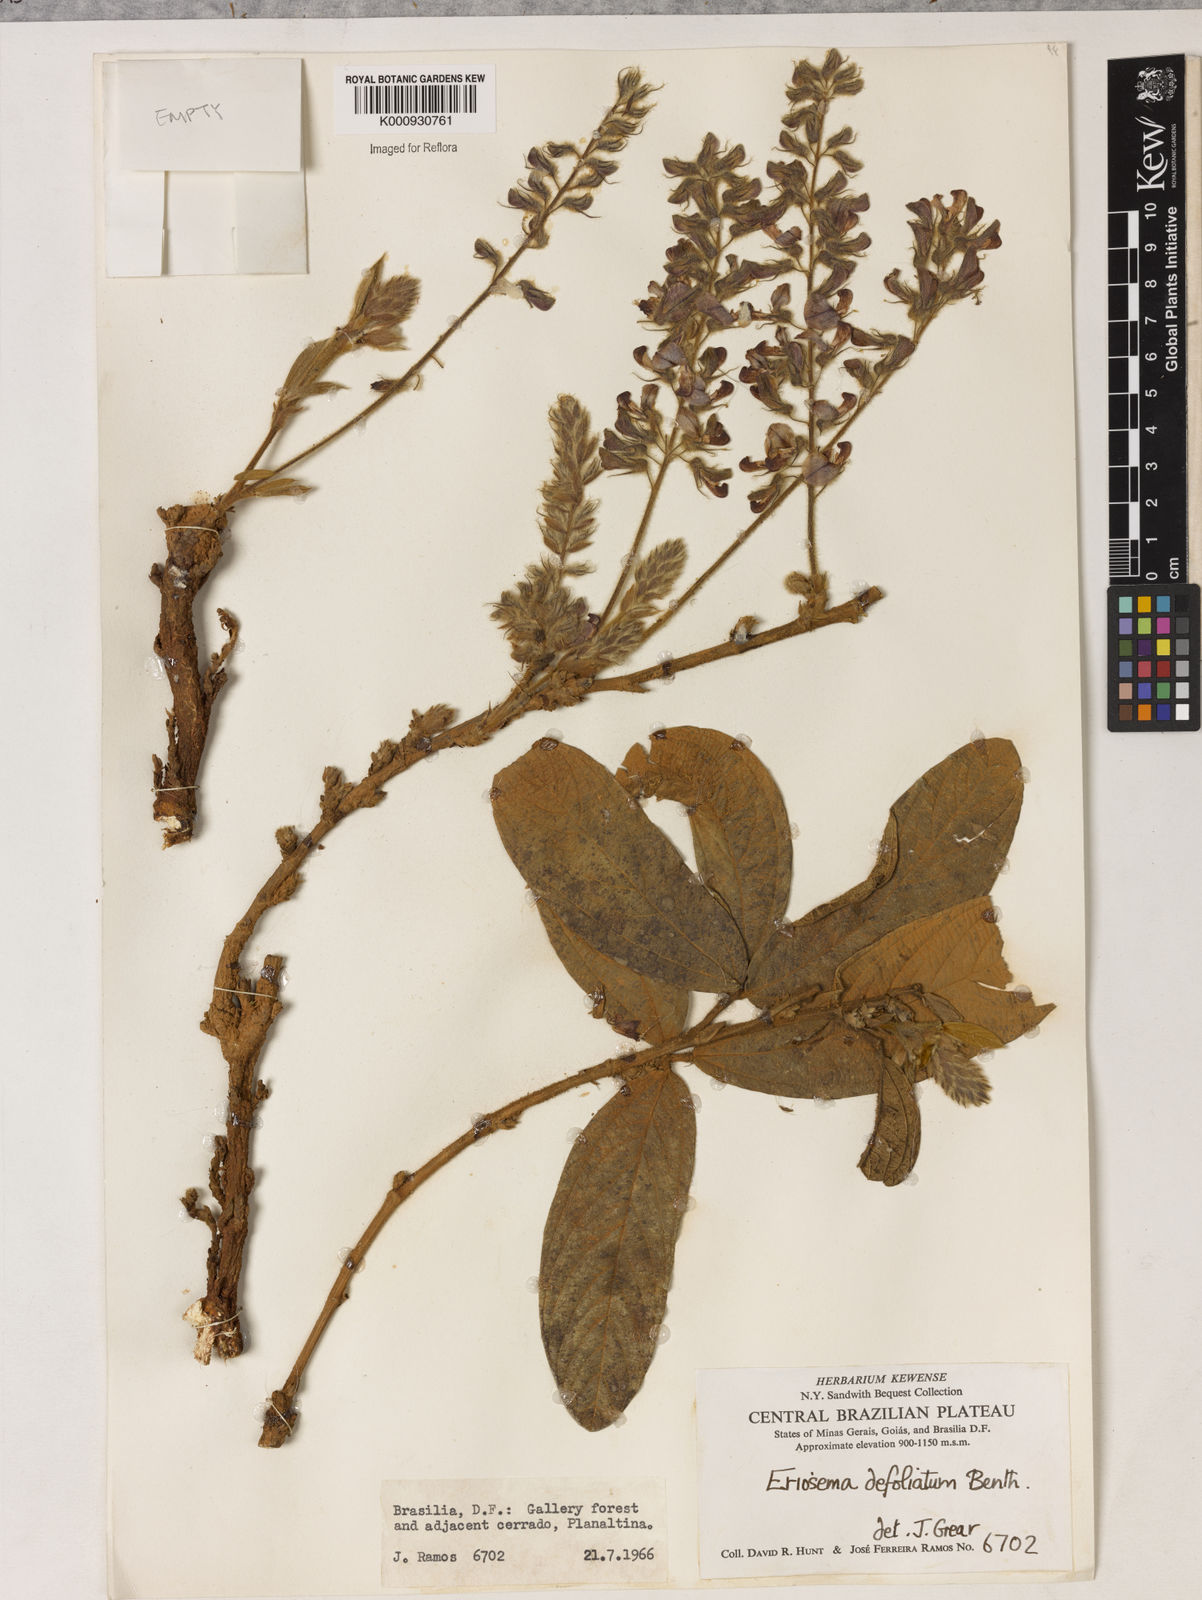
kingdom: Plantae
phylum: Tracheophyta
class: Magnoliopsida
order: Fabales
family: Fabaceae
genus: Eriosema
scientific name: Eriosema defoliatum
